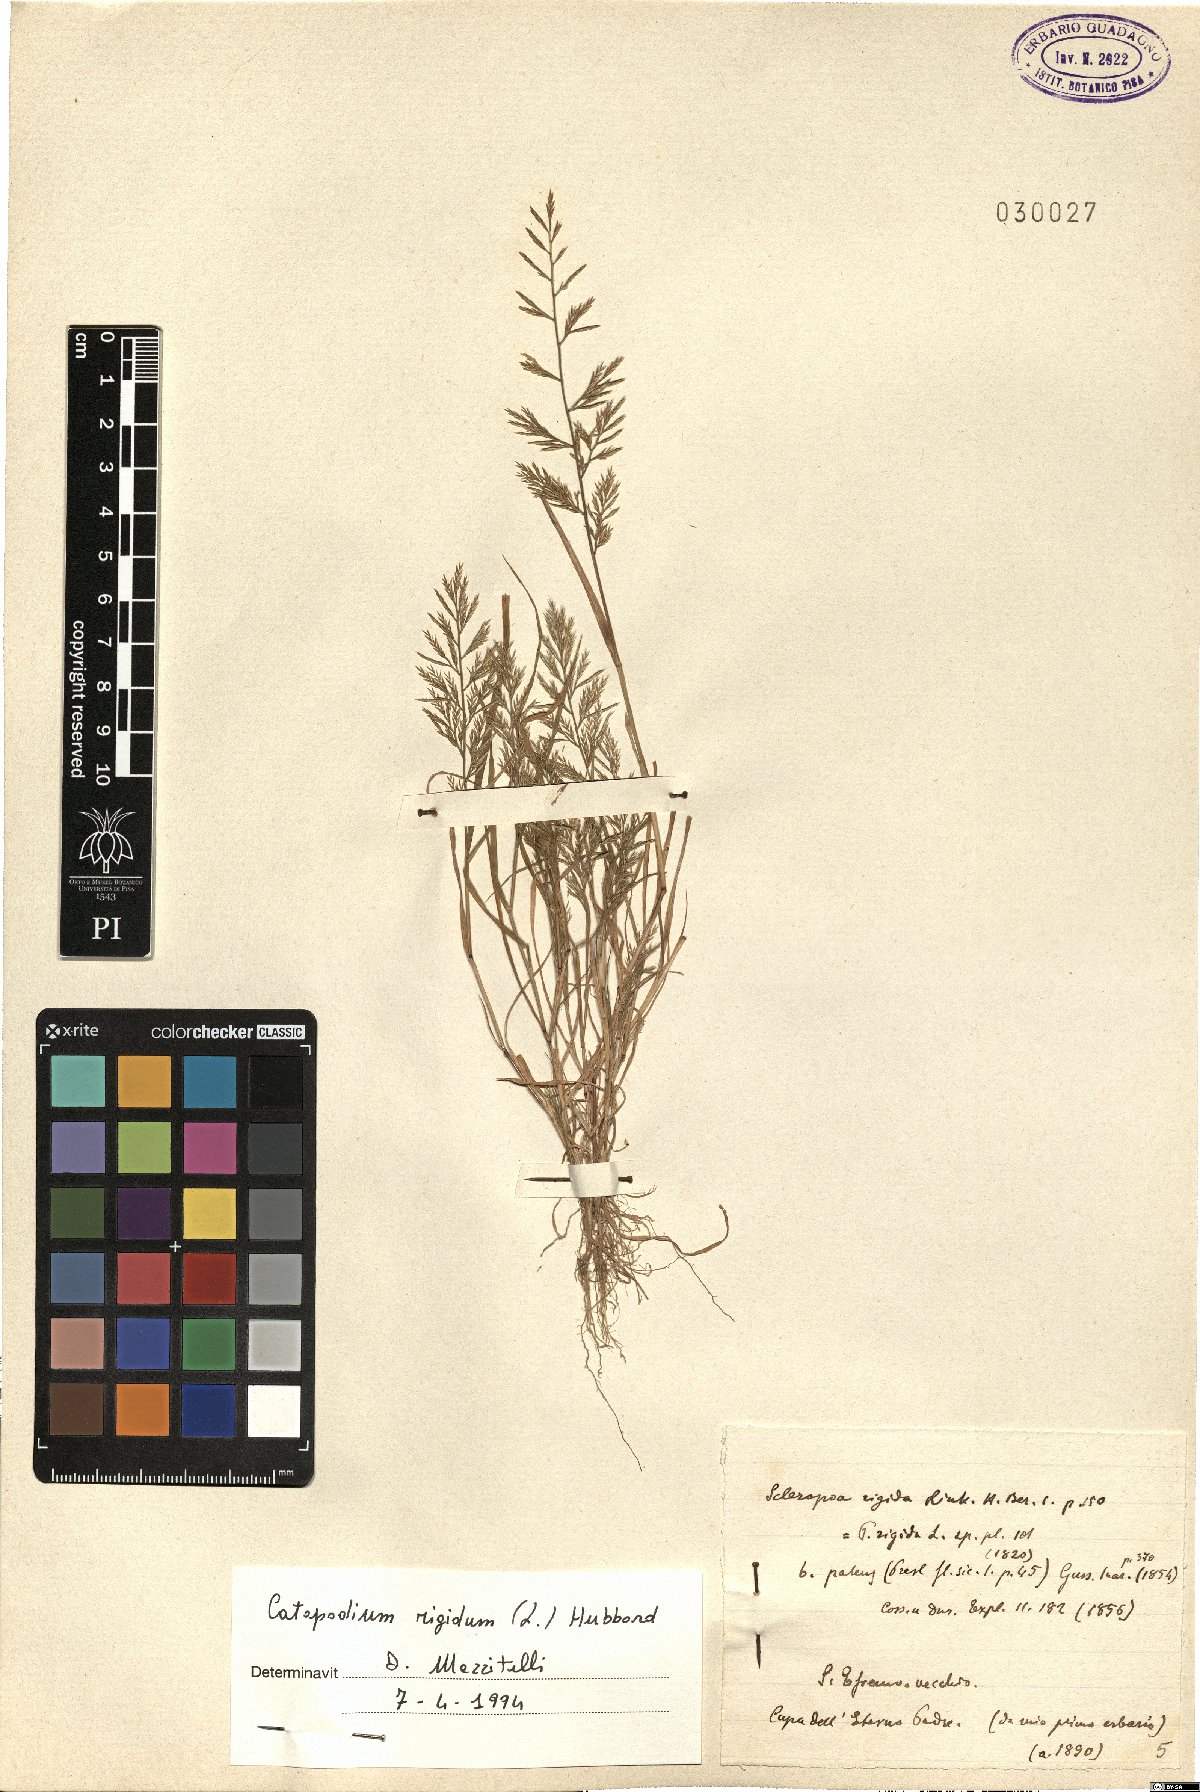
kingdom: Plantae
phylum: Tracheophyta
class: Liliopsida
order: Poales
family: Poaceae
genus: Catapodium
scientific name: Catapodium rigidum
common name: Fern-grass
